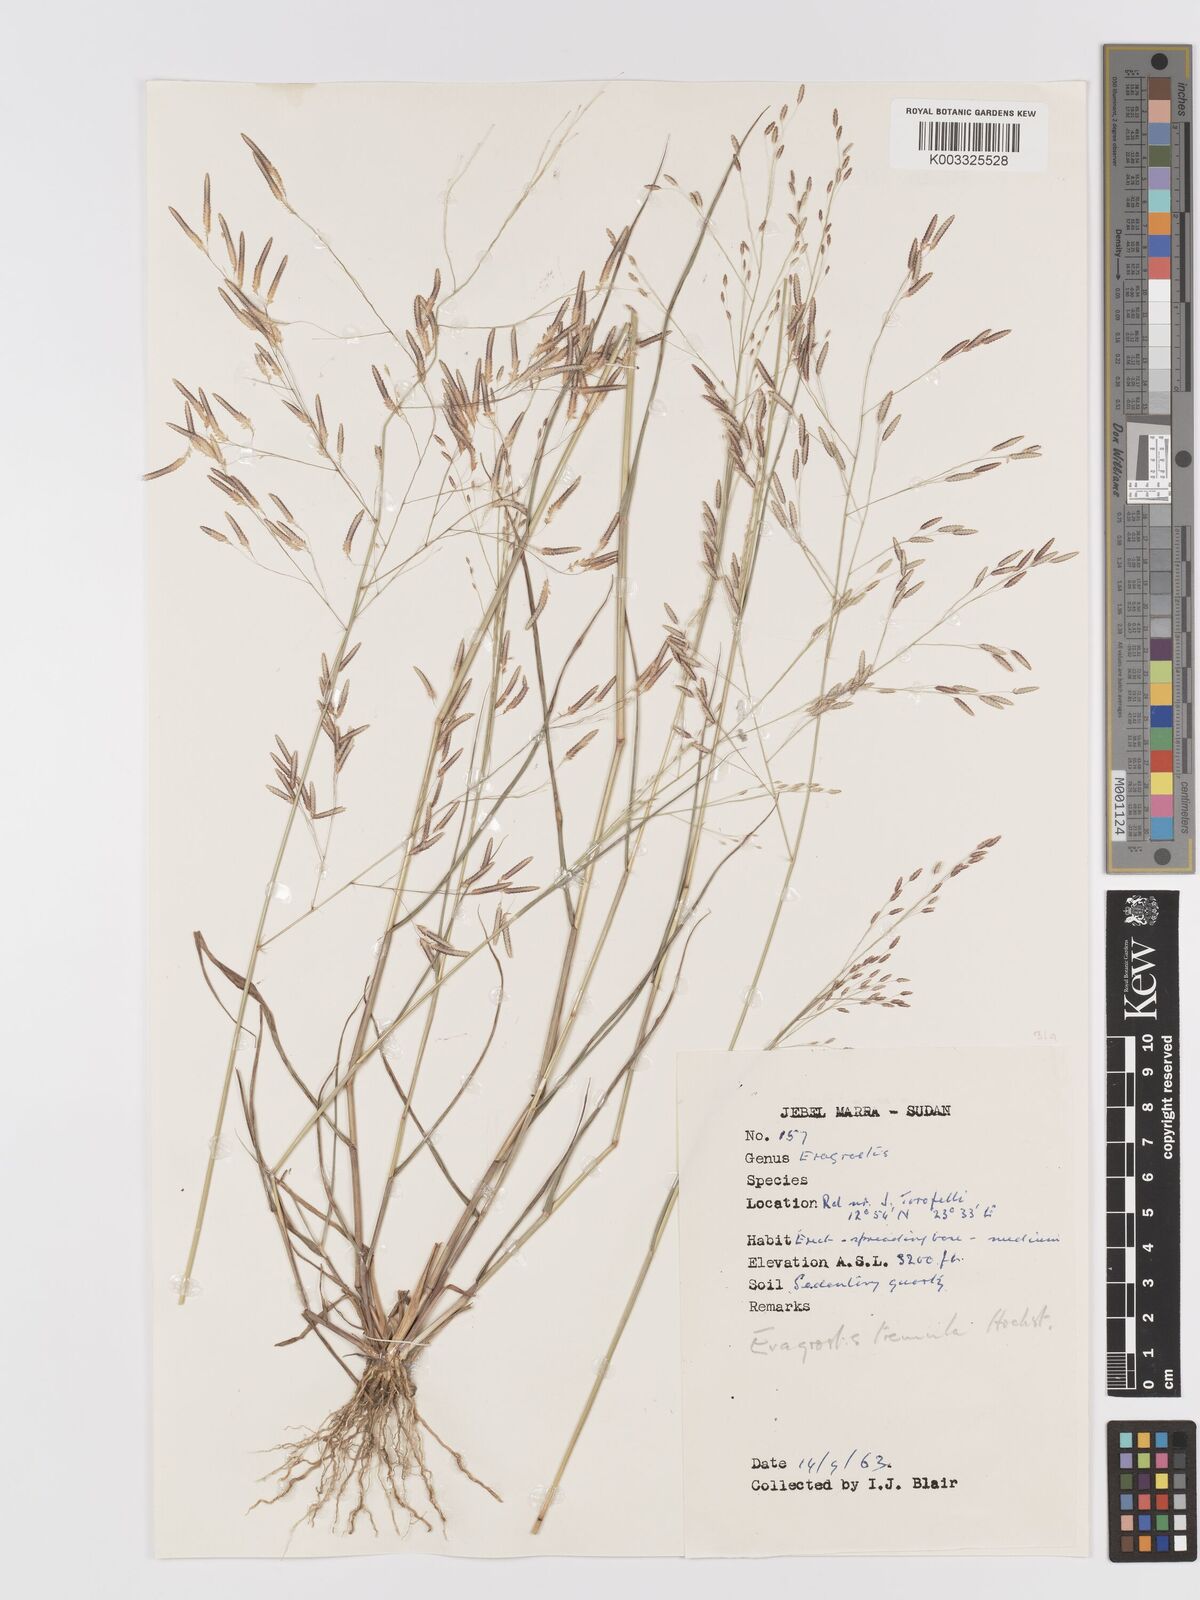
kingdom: Plantae
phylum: Tracheophyta
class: Liliopsida
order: Poales
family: Poaceae
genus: Eragrostis
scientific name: Eragrostis tremula
